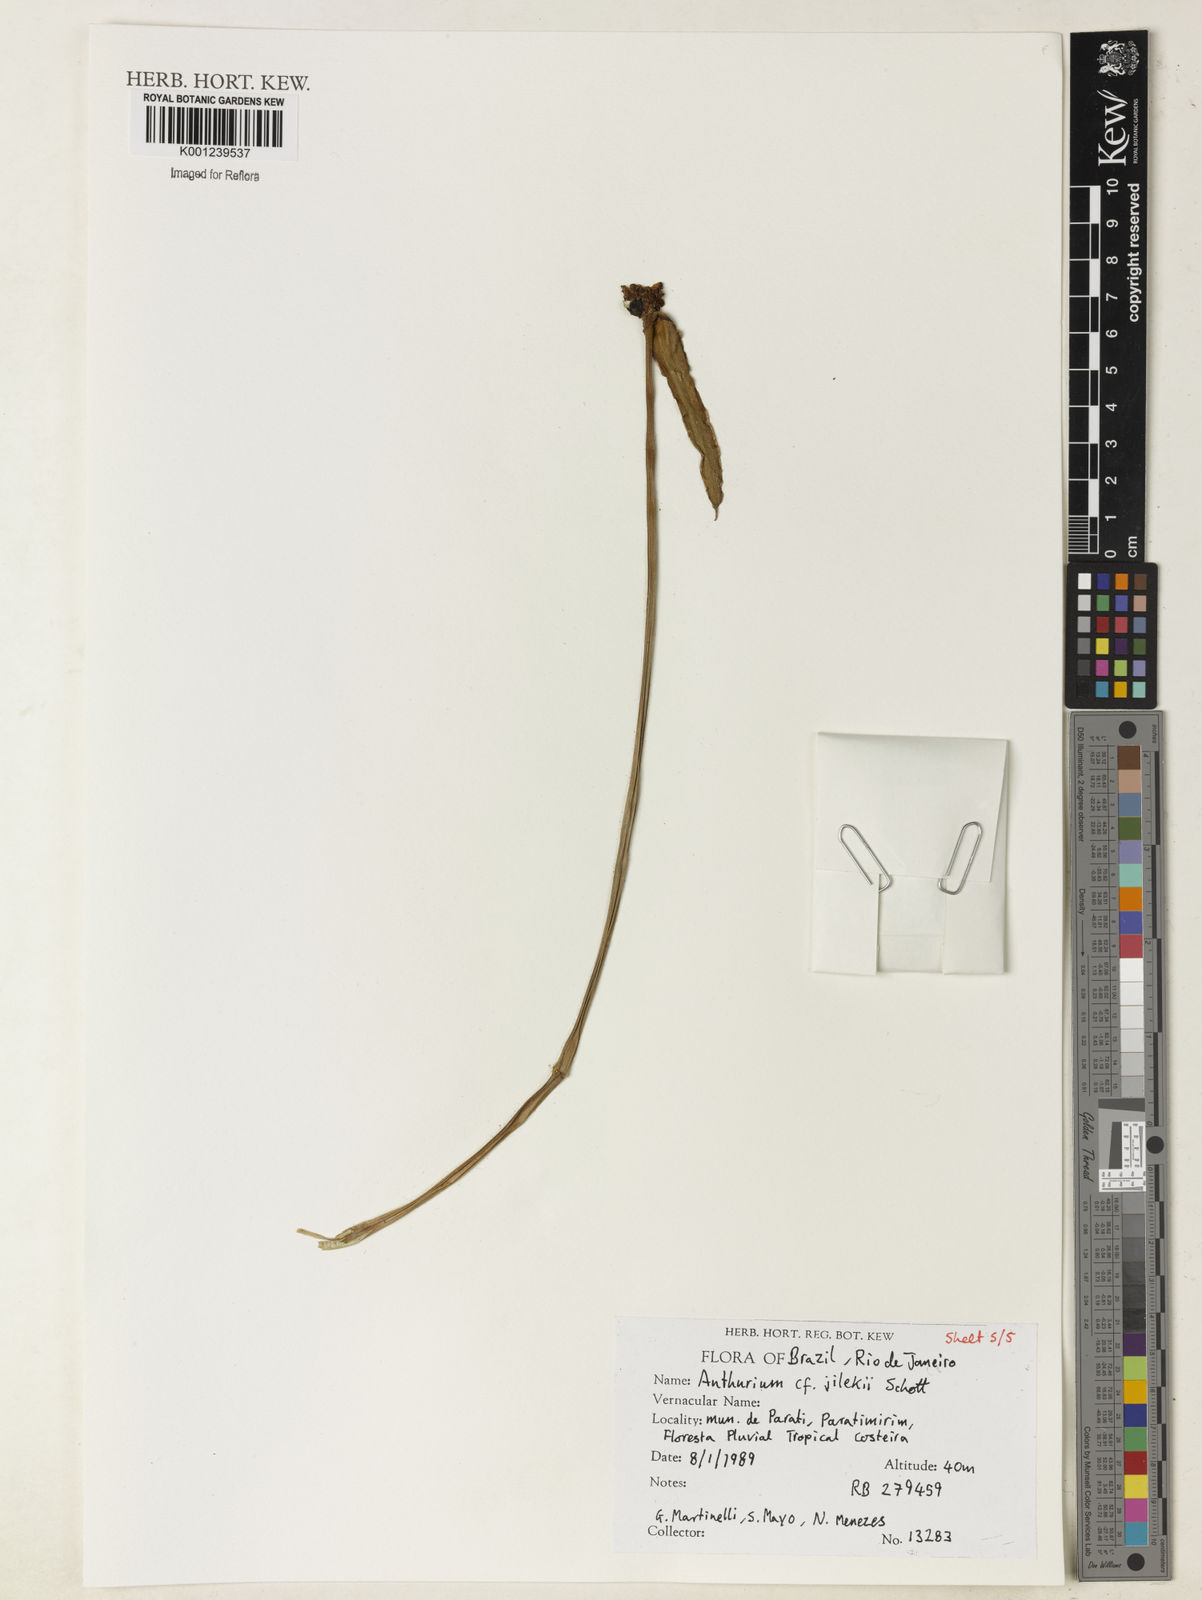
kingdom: Plantae
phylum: Tracheophyta
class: Liliopsida
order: Alismatales
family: Araceae
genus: Anthurium
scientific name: Anthurium jilekii
